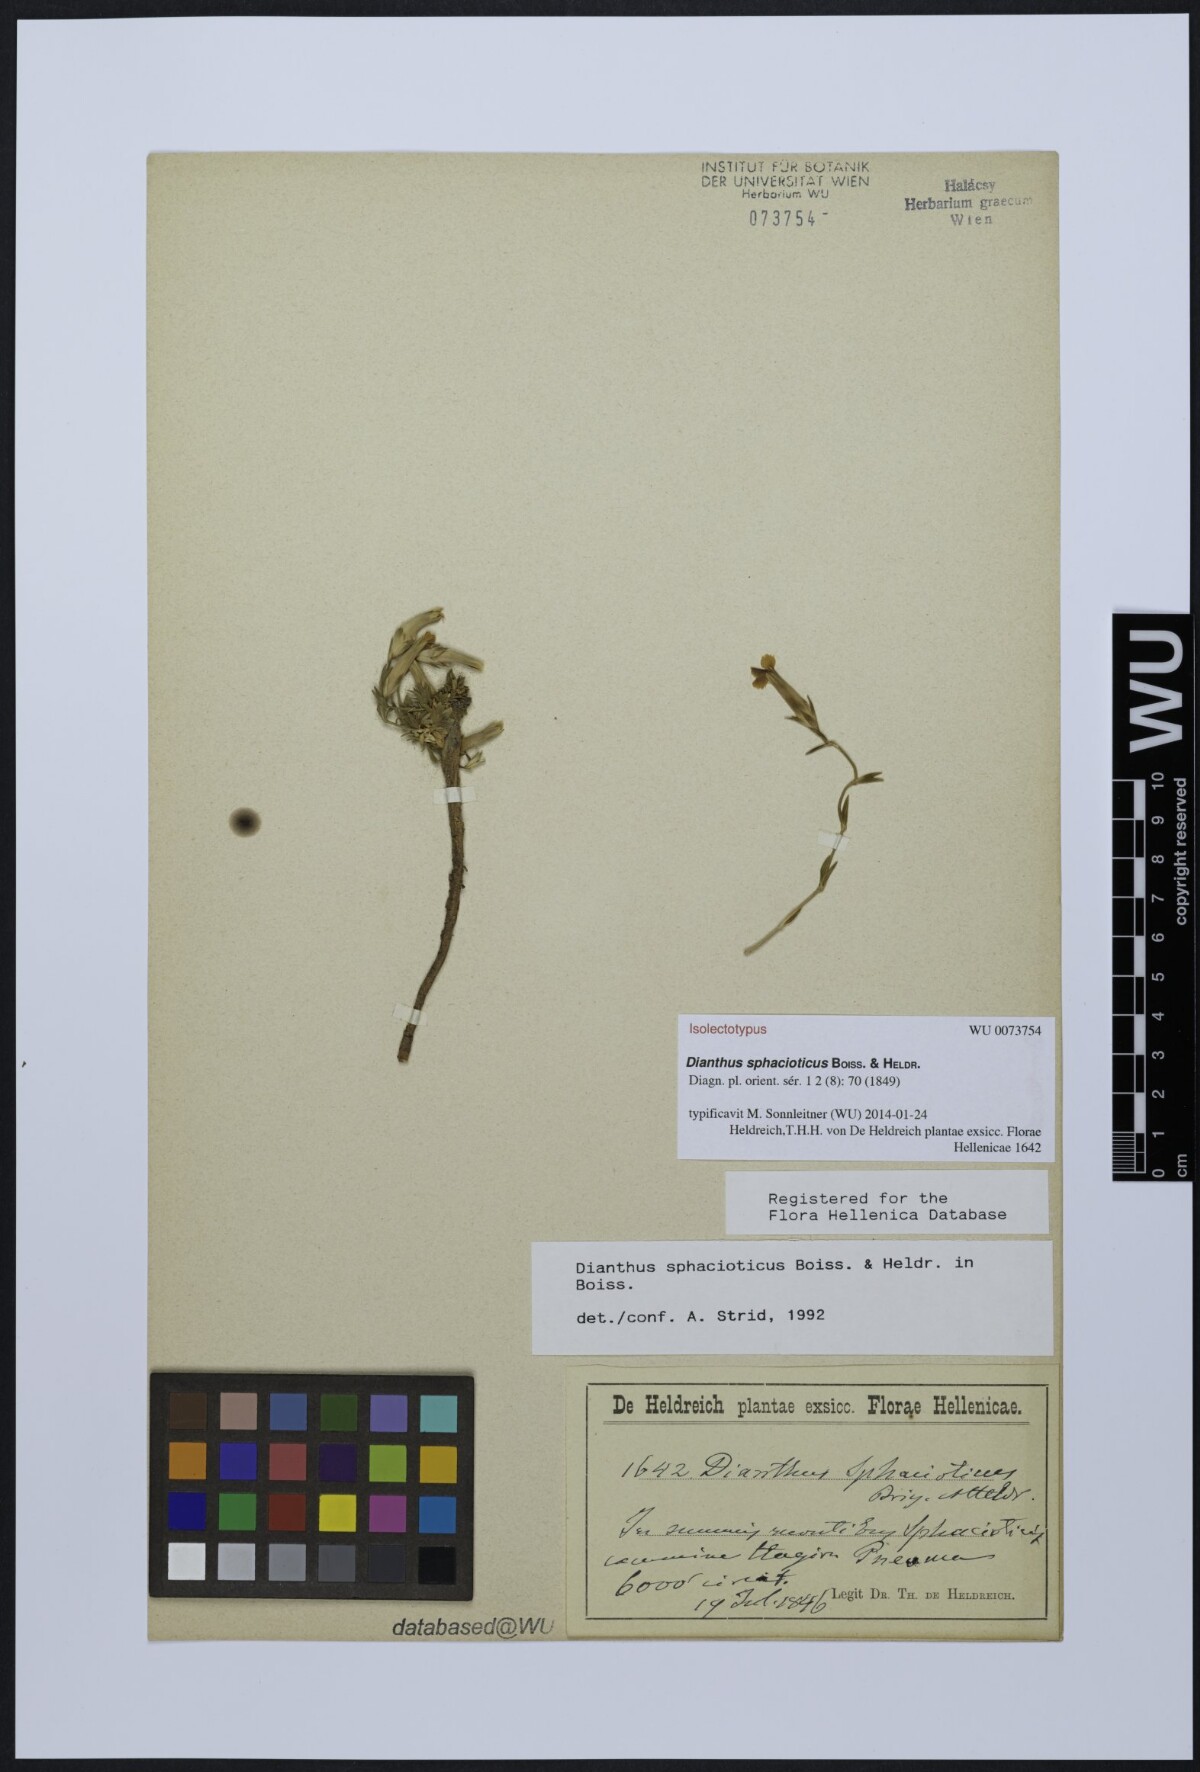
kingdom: Plantae
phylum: Tracheophyta
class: Magnoliopsida
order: Caryophyllales
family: Caryophyllaceae
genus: Dianthus
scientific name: Dianthus sphacioticus
